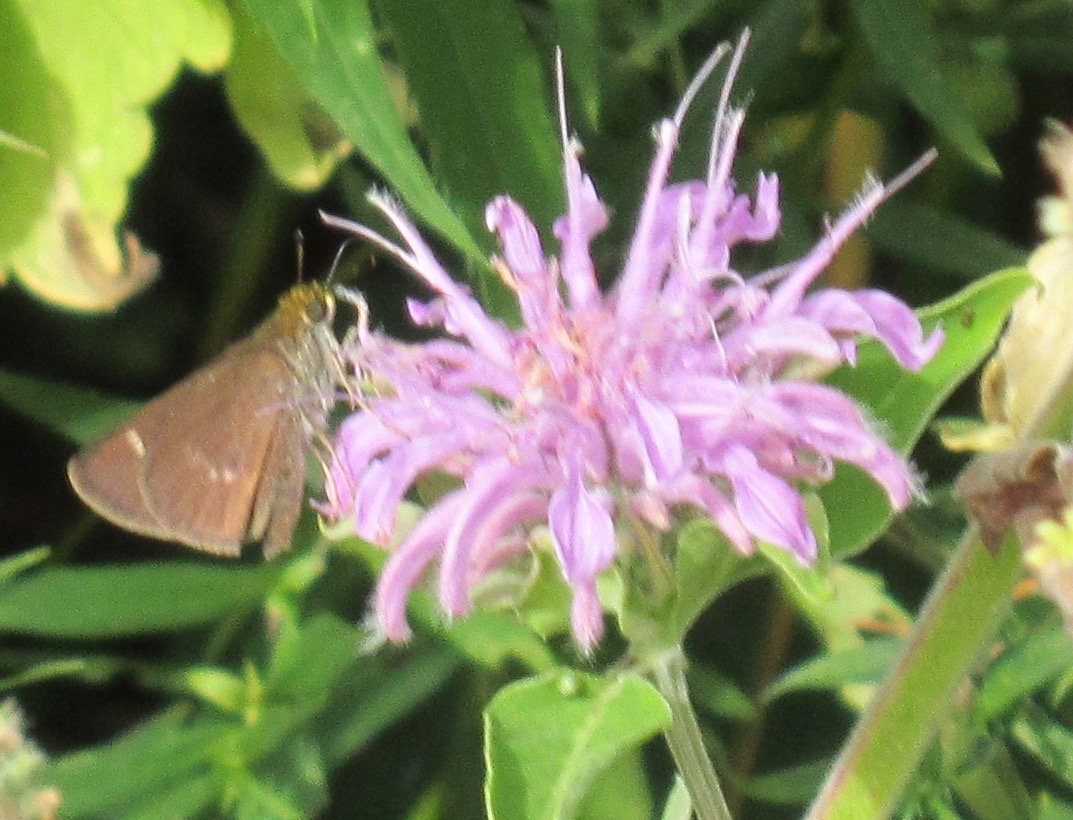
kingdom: Animalia
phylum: Arthropoda
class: Insecta
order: Lepidoptera
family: Hesperiidae
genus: Euphyes
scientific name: Euphyes vestris
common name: Dun Skipper
